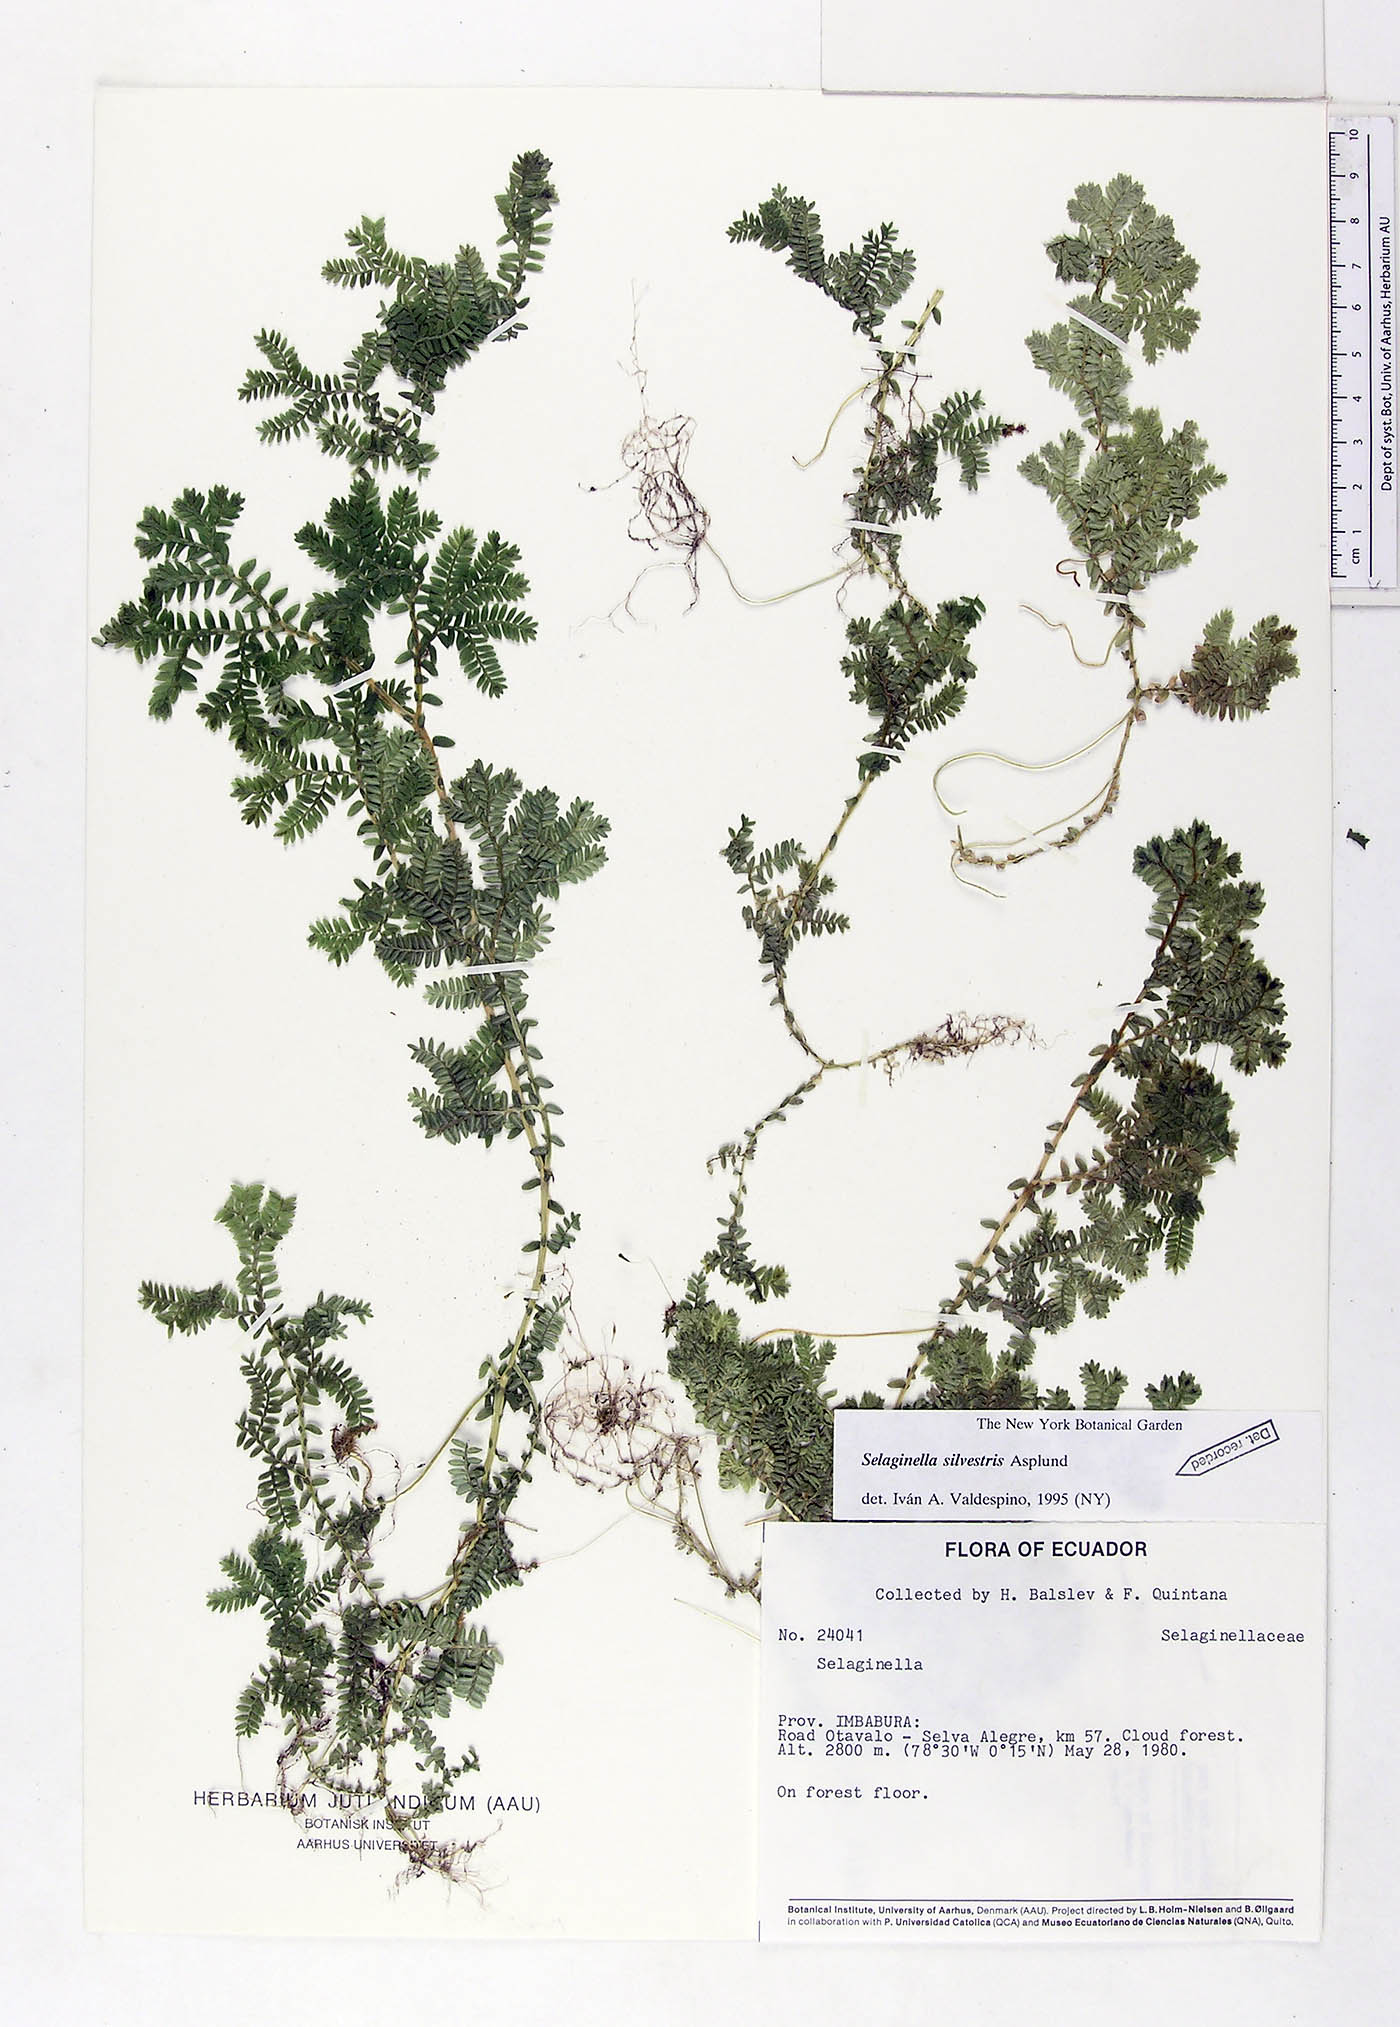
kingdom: Plantae
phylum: Tracheophyta
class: Lycopodiopsida
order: Selaginellales
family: Selaginellaceae
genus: Selaginella
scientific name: Selaginella silvestris
